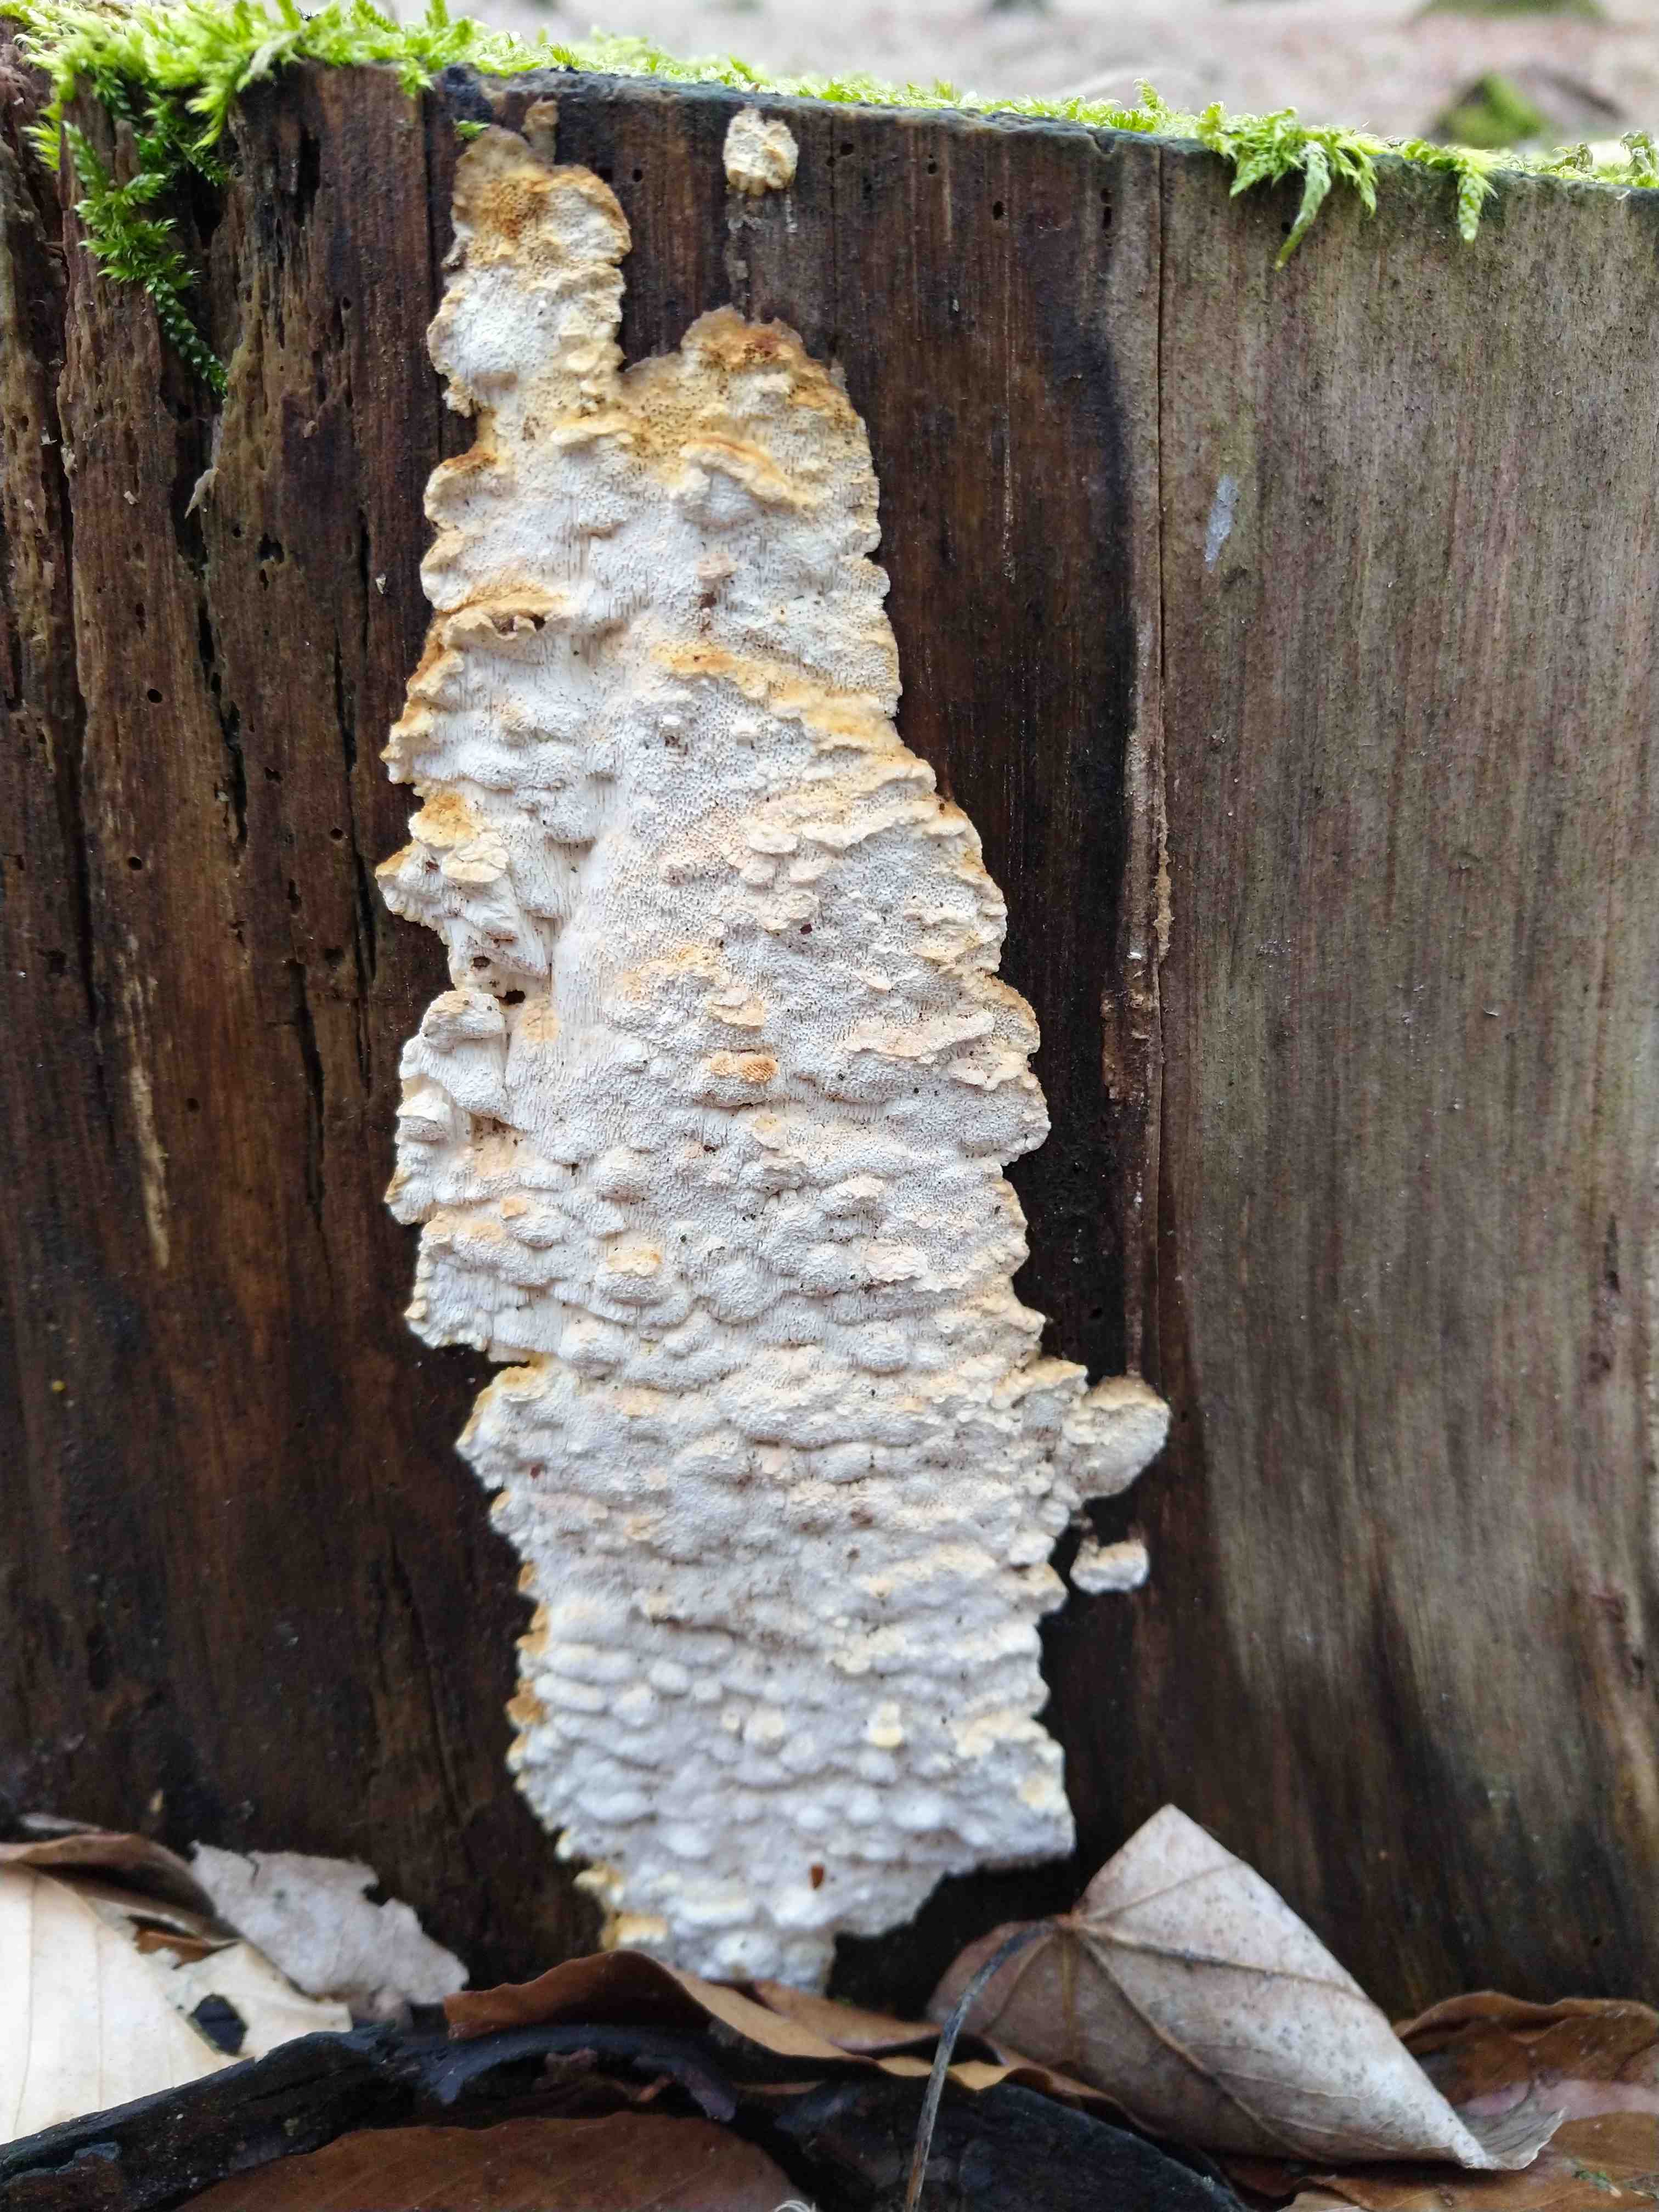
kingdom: Fungi
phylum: Basidiomycota
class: Agaricomycetes
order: Polyporales
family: Fomitopsidaceae
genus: Neoantrodia
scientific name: Neoantrodia serialis
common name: række-sejporesvamp
